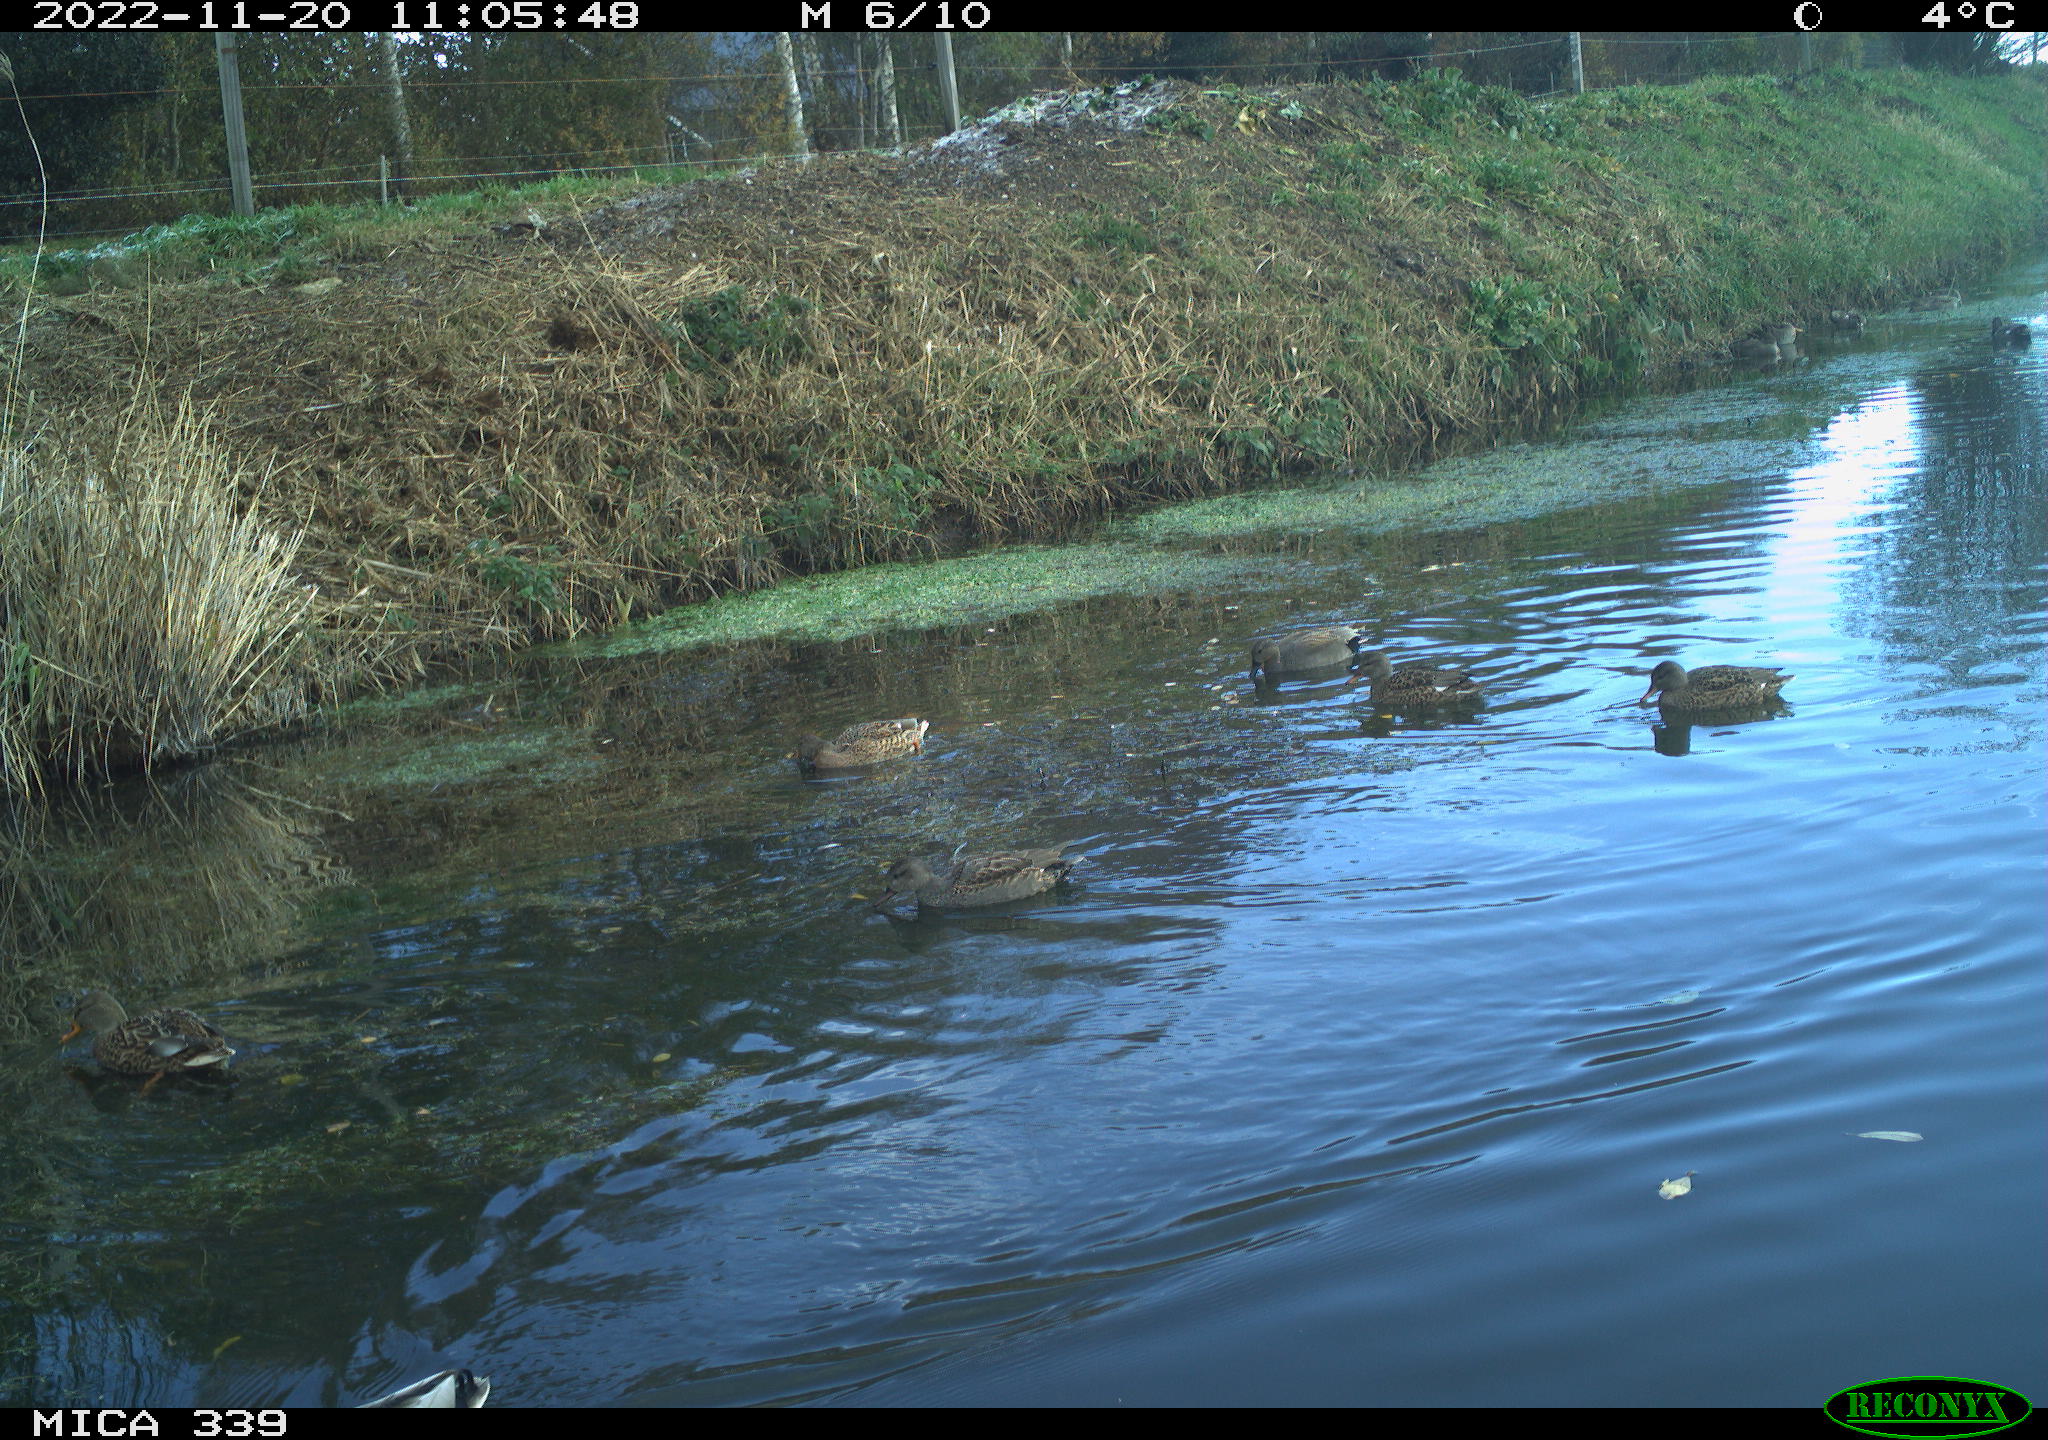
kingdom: Animalia
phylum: Chordata
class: Aves
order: Anseriformes
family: Anatidae
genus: Mareca
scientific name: Mareca strepera
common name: Gadwall
